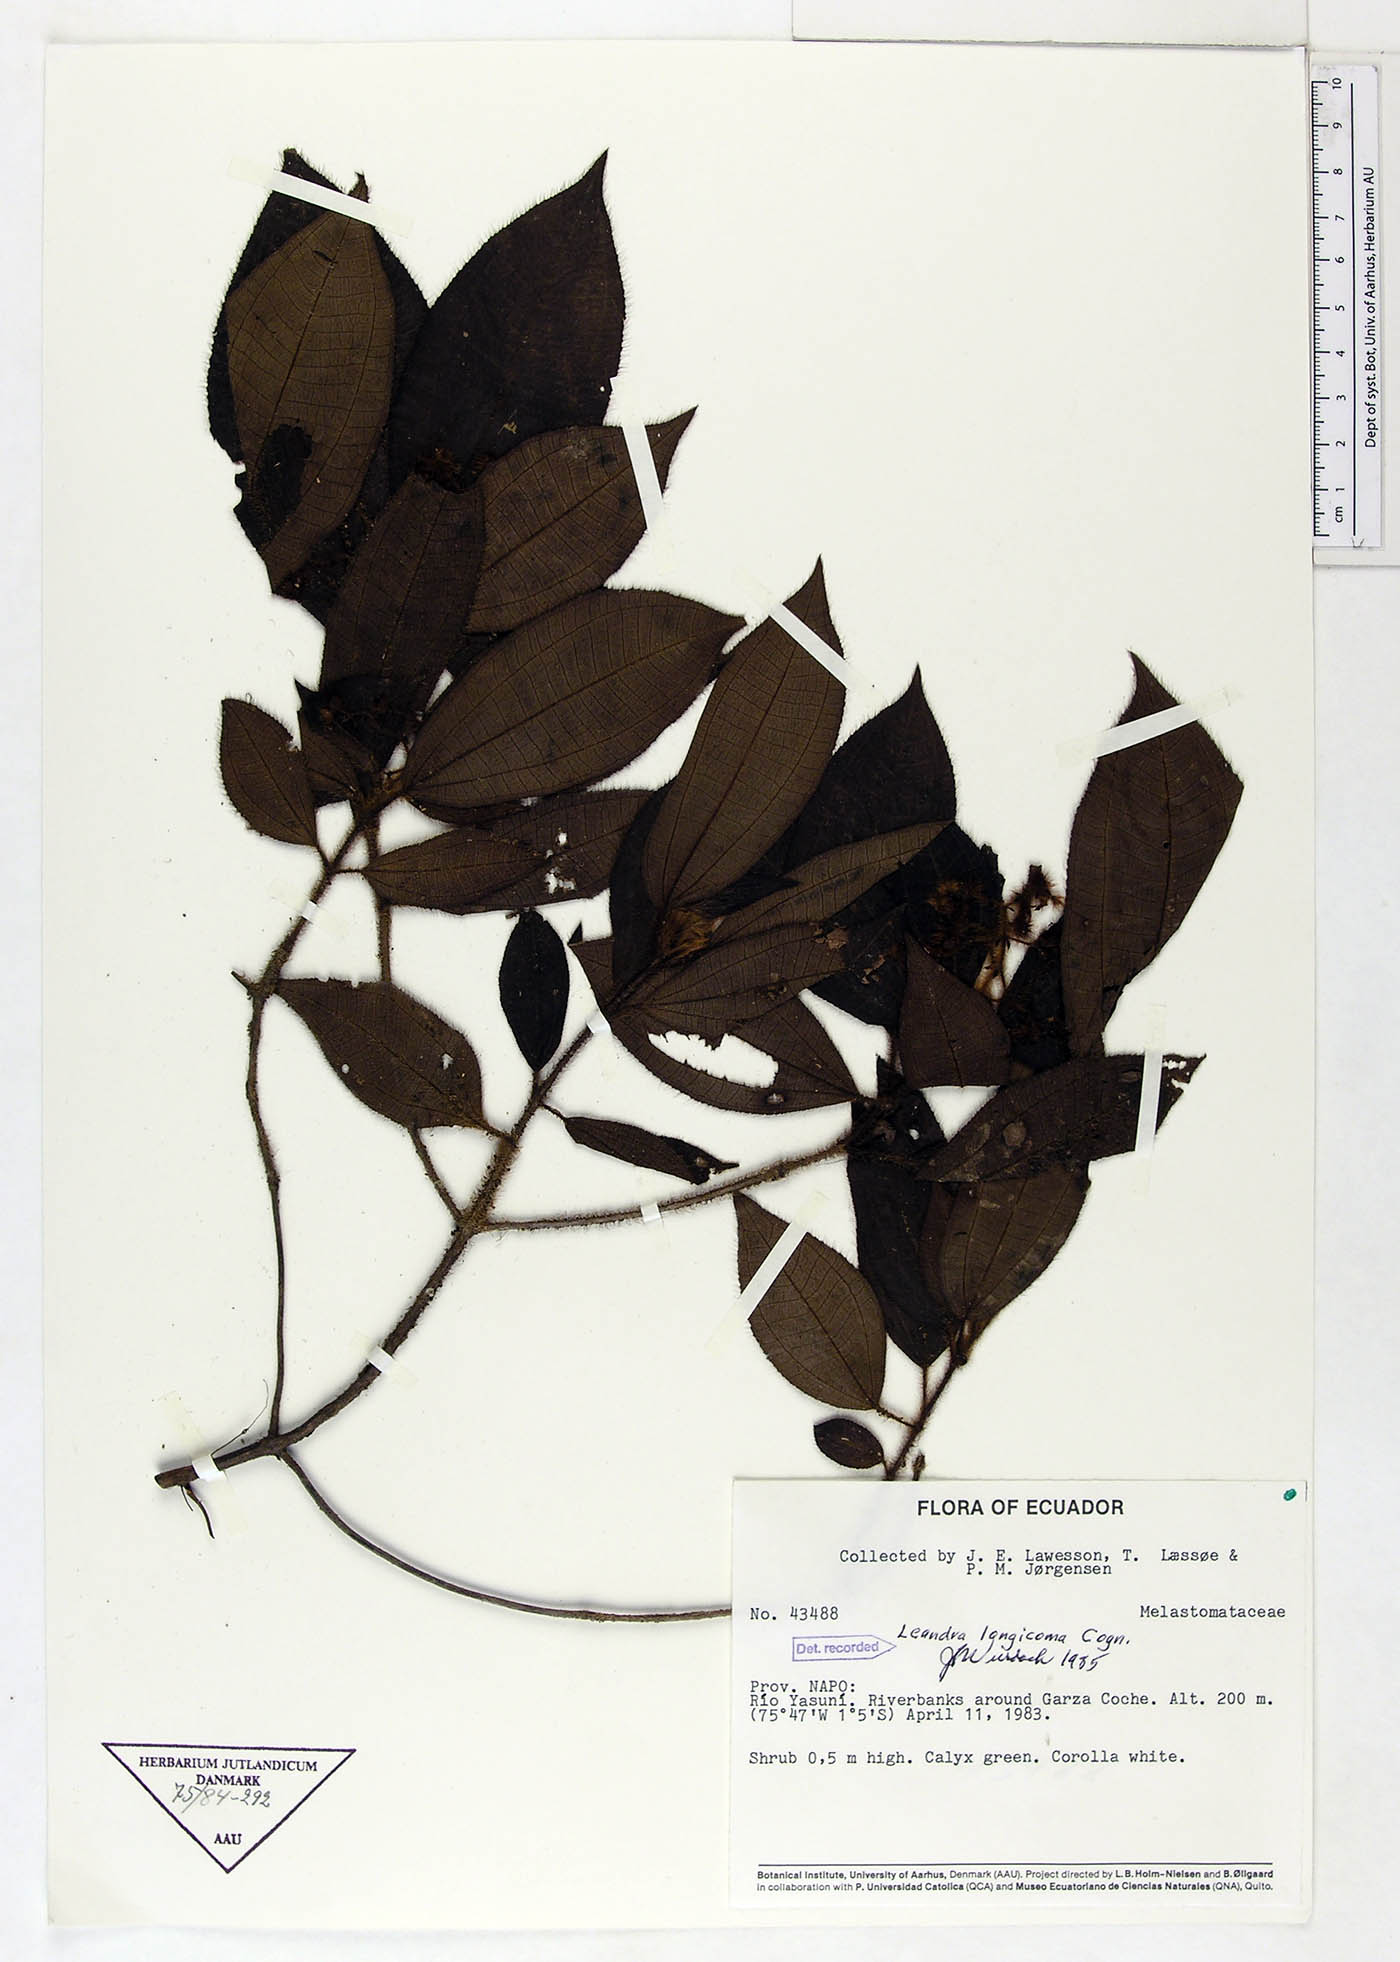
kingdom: Plantae
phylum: Tracheophyta
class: Magnoliopsida
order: Myrtales
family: Melastomataceae
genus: Miconia
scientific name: Miconia longicoma
